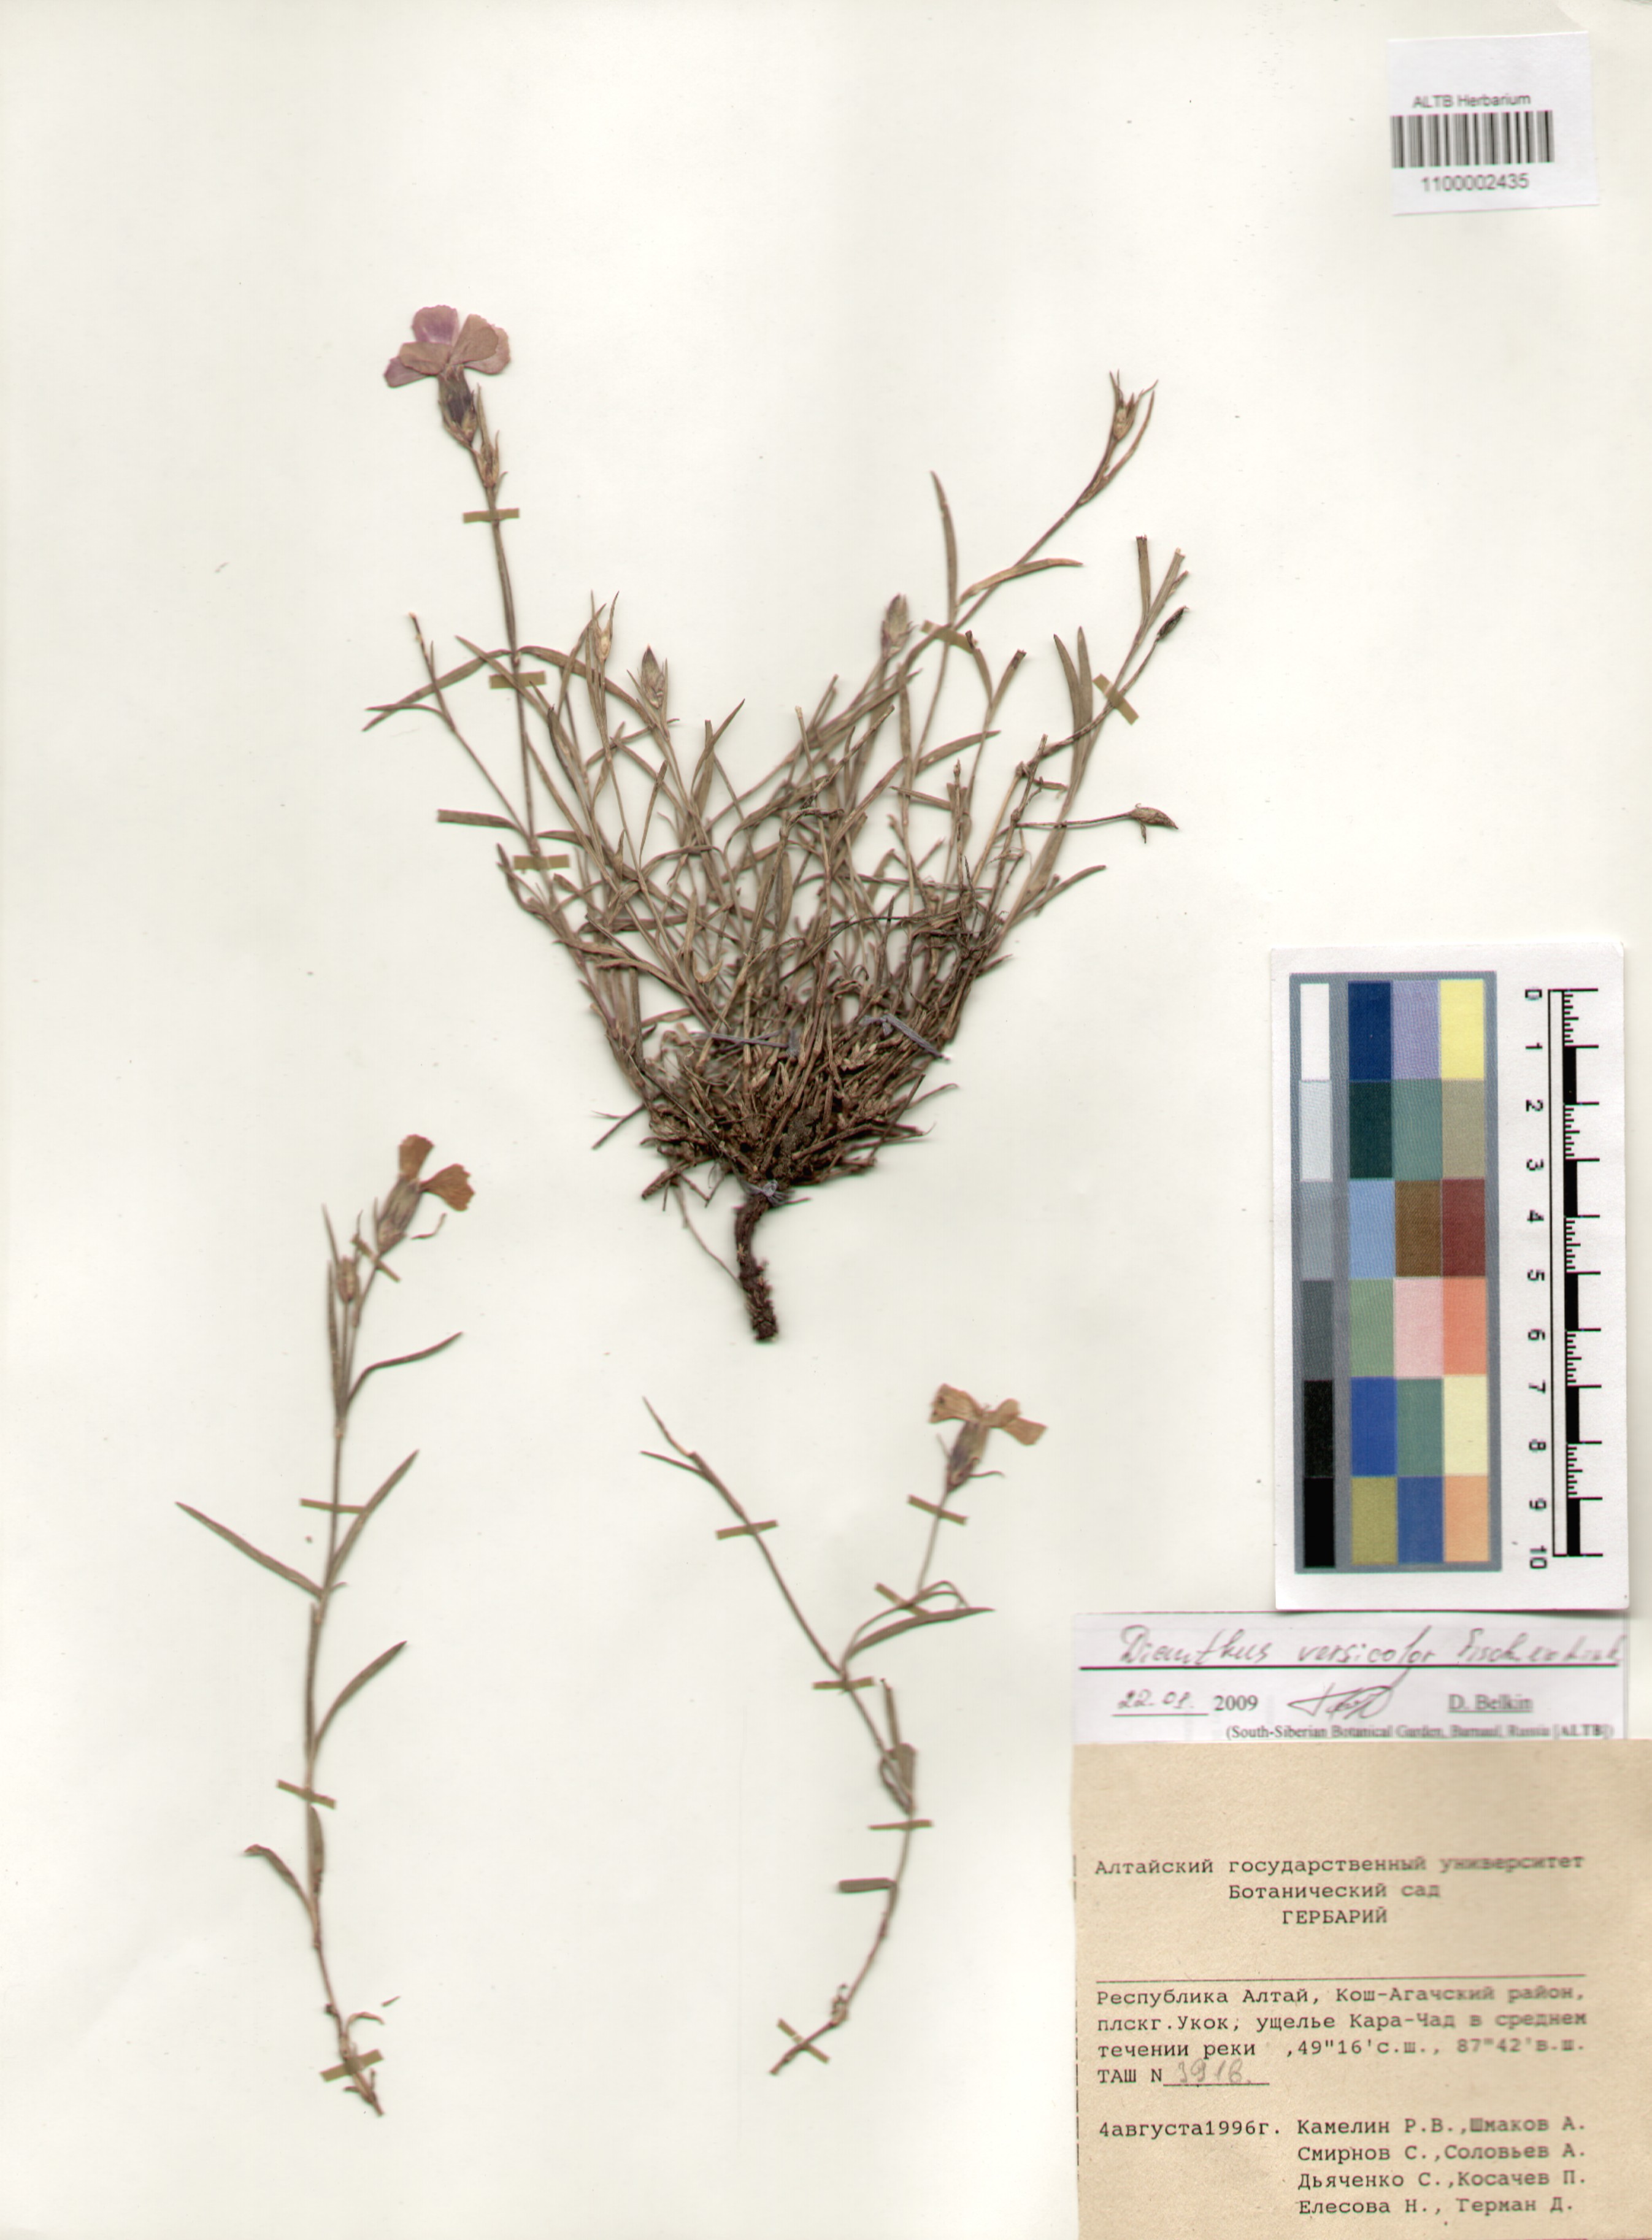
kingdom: Plantae
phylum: Tracheophyta
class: Magnoliopsida
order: Caryophyllales
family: Caryophyllaceae
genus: Dianthus
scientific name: Dianthus chinensis
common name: Rainbow pink
